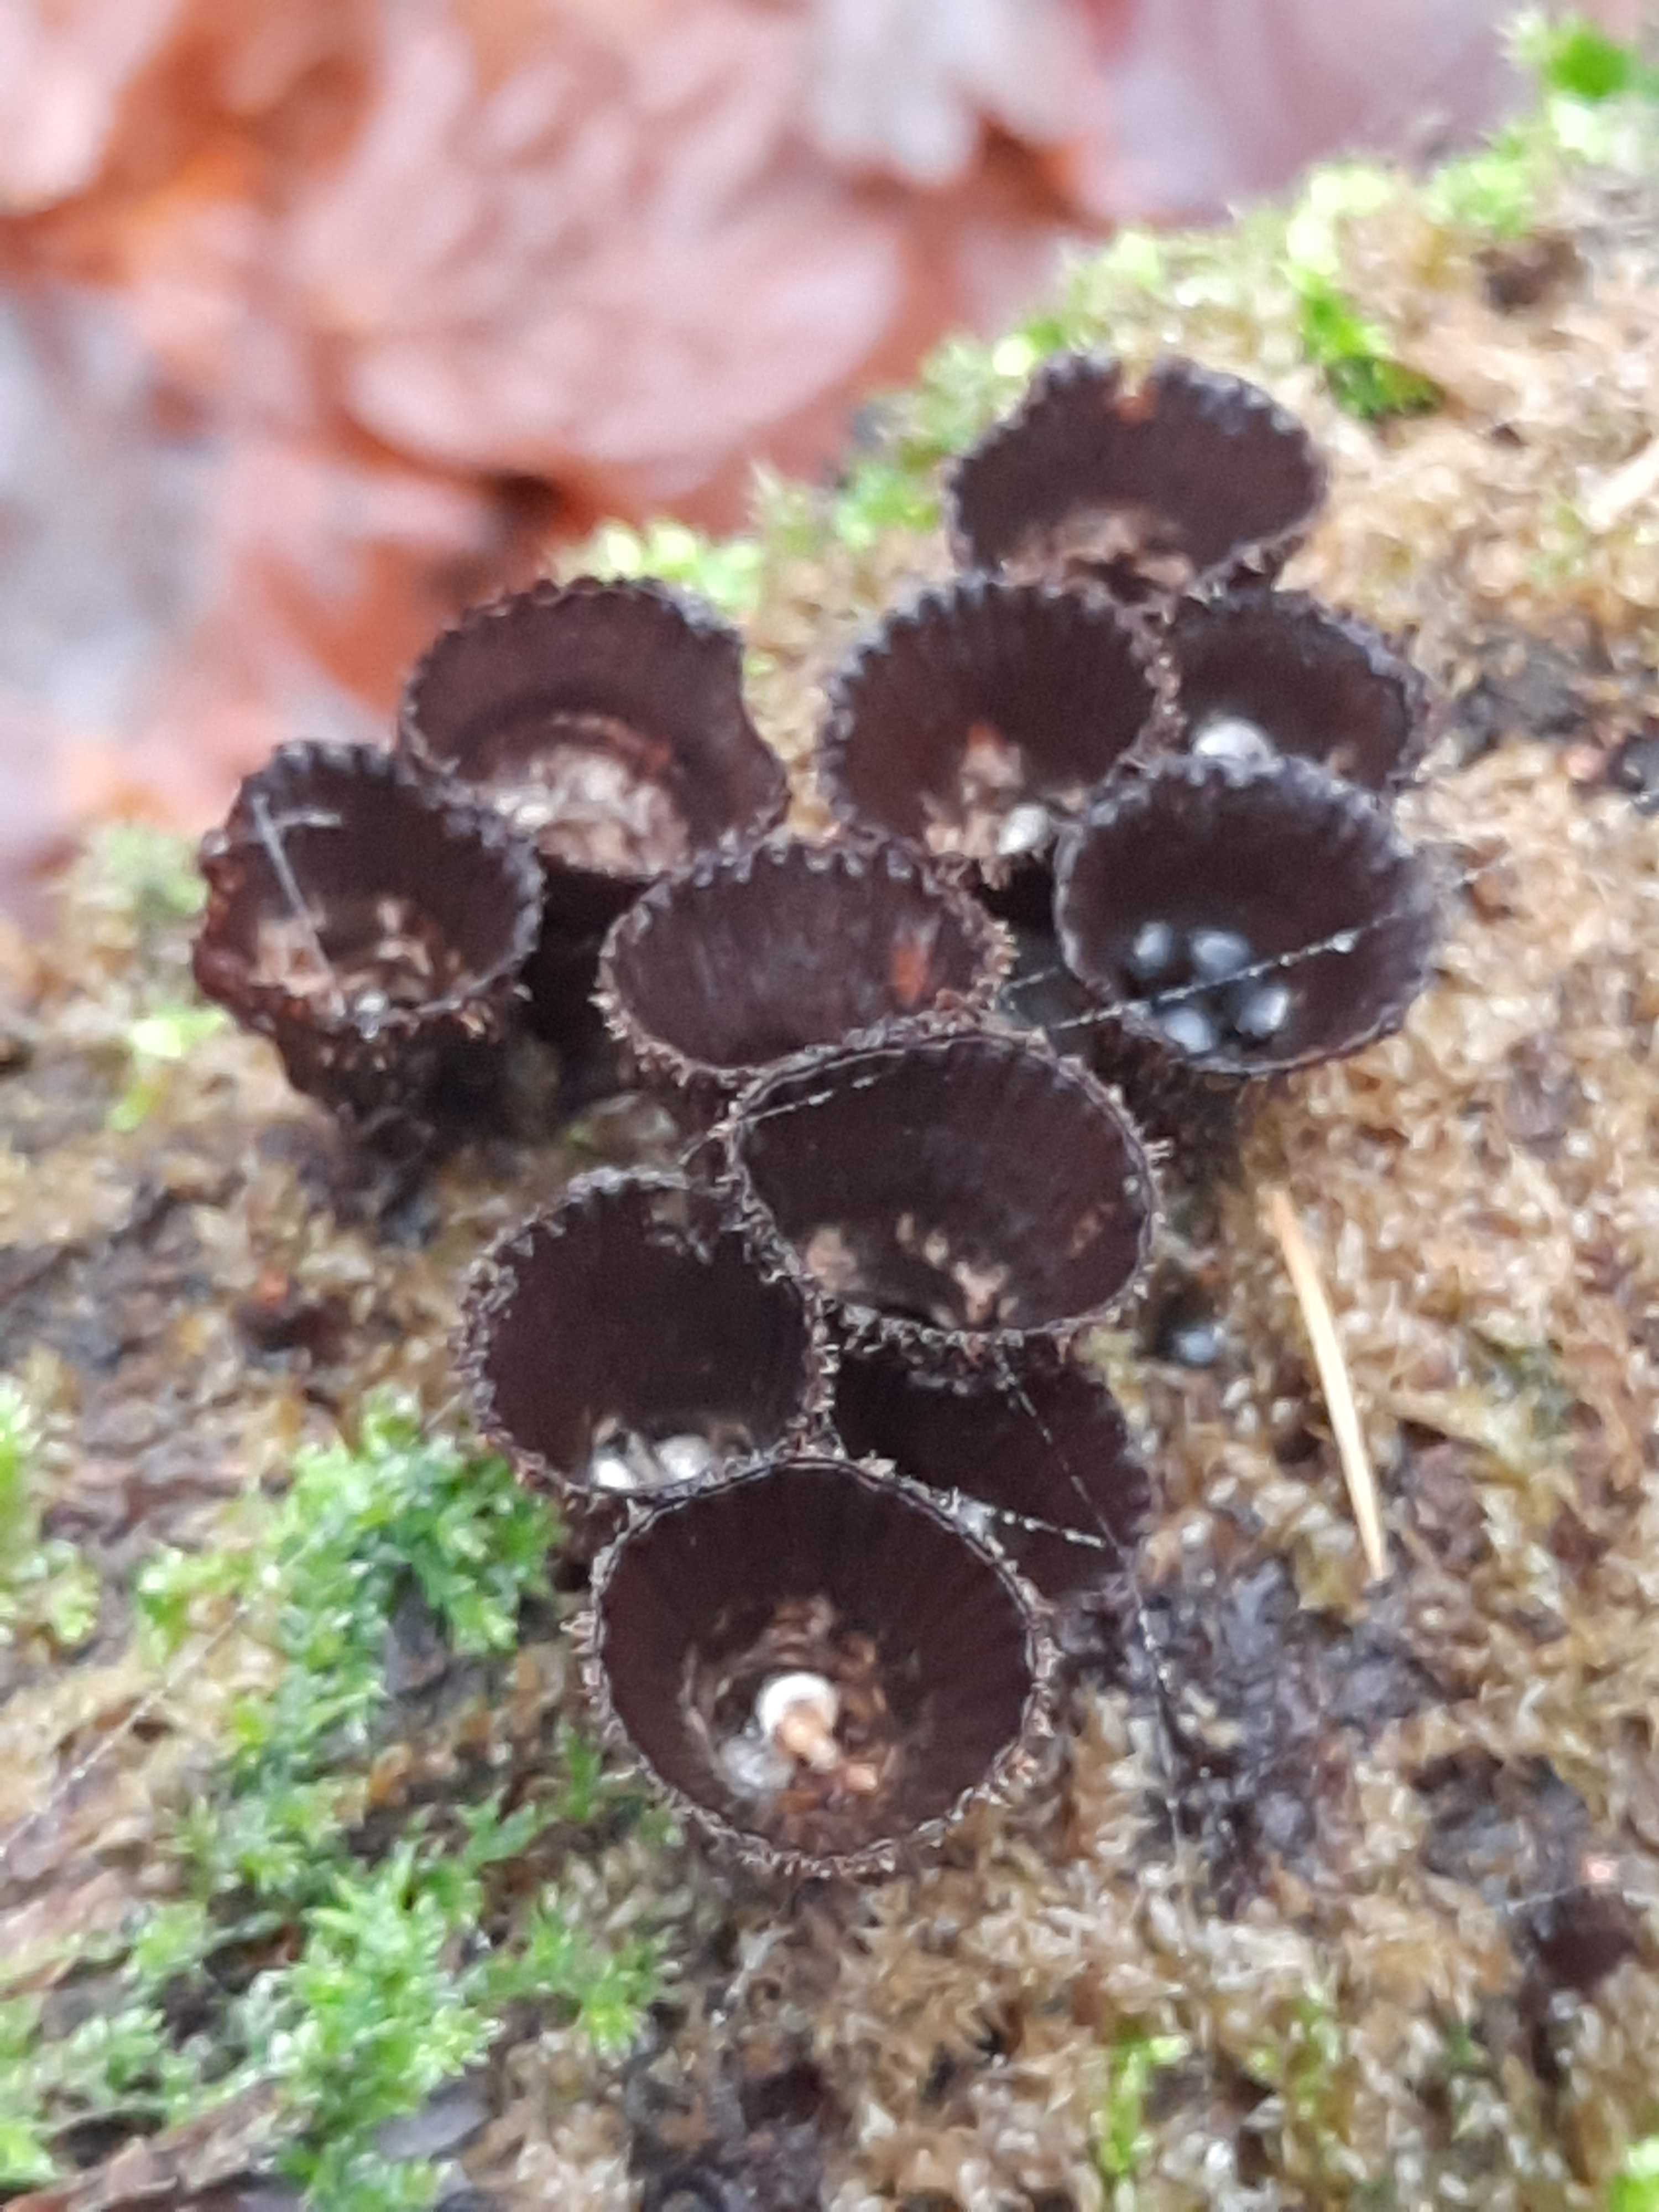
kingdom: Fungi
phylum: Basidiomycota
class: Agaricomycetes
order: Agaricales
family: Agaricaceae
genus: Cyathus
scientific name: Cyathus striatus
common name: stribet redesvamp
